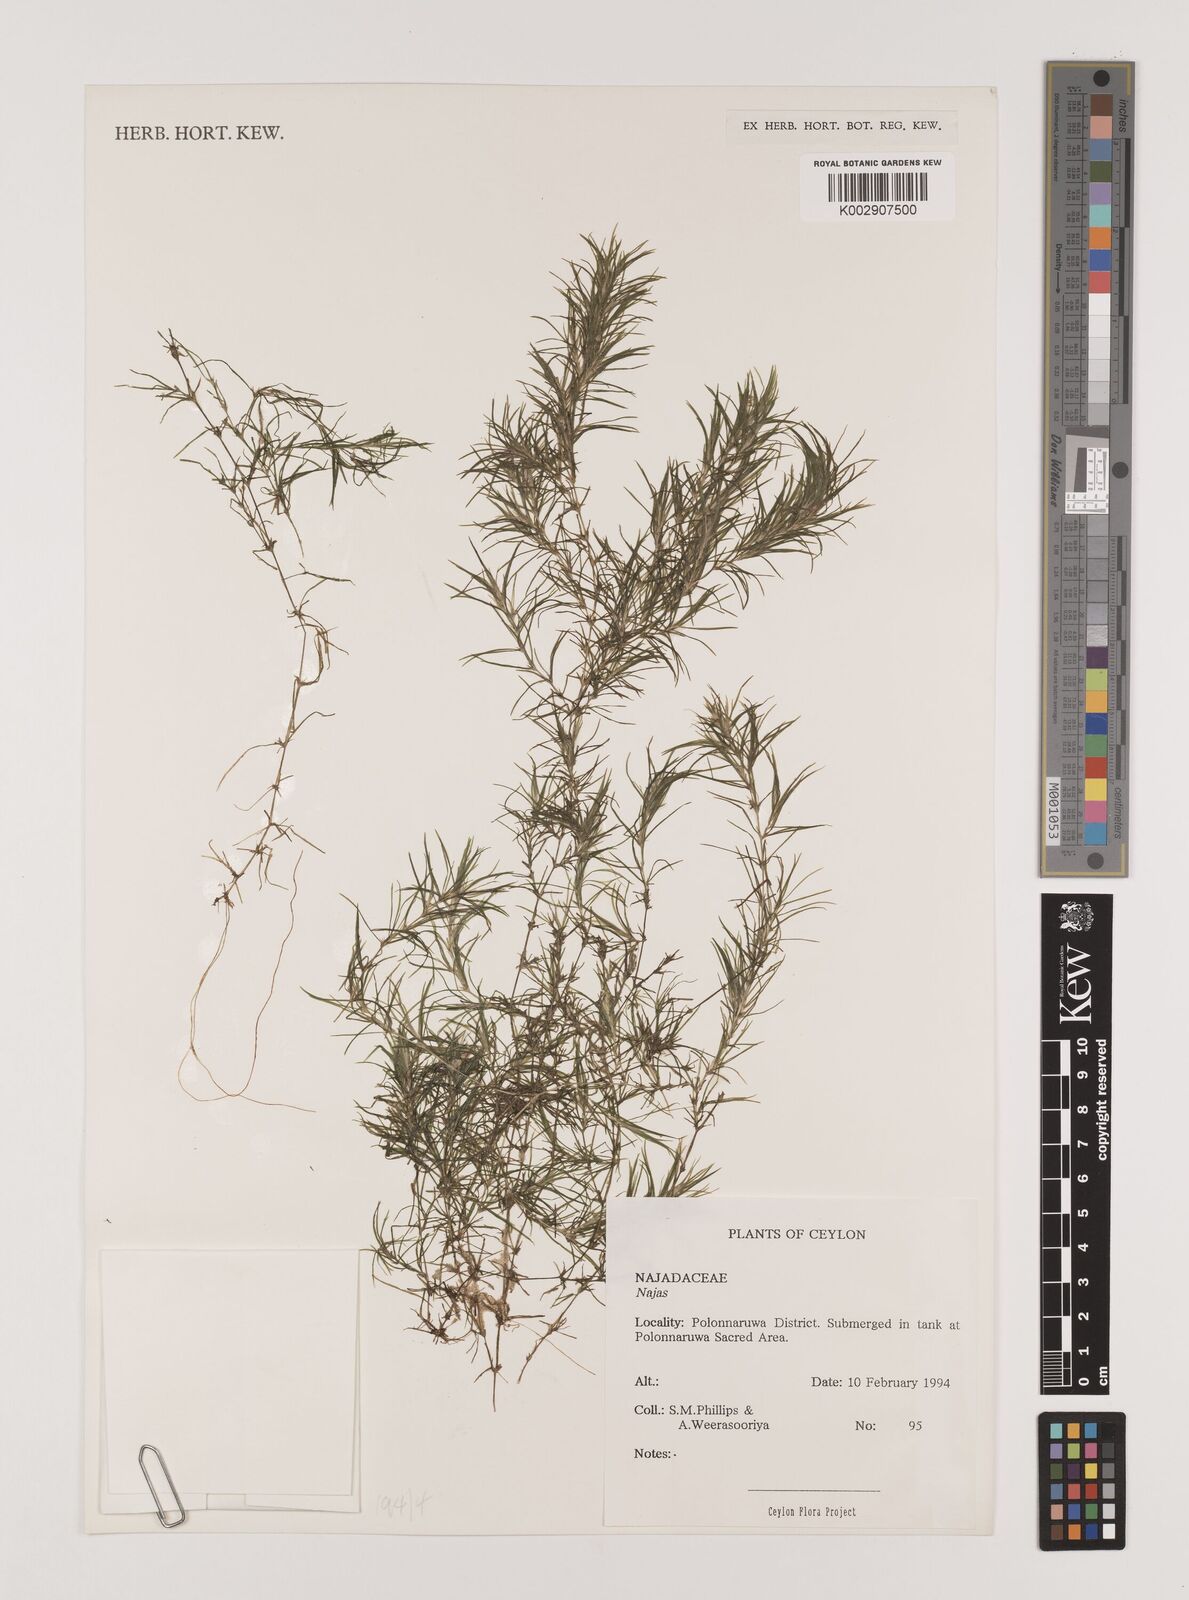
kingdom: Plantae
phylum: Tracheophyta
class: Liliopsida
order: Alismatales
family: Hydrocharitaceae
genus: Najas
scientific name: Najas
